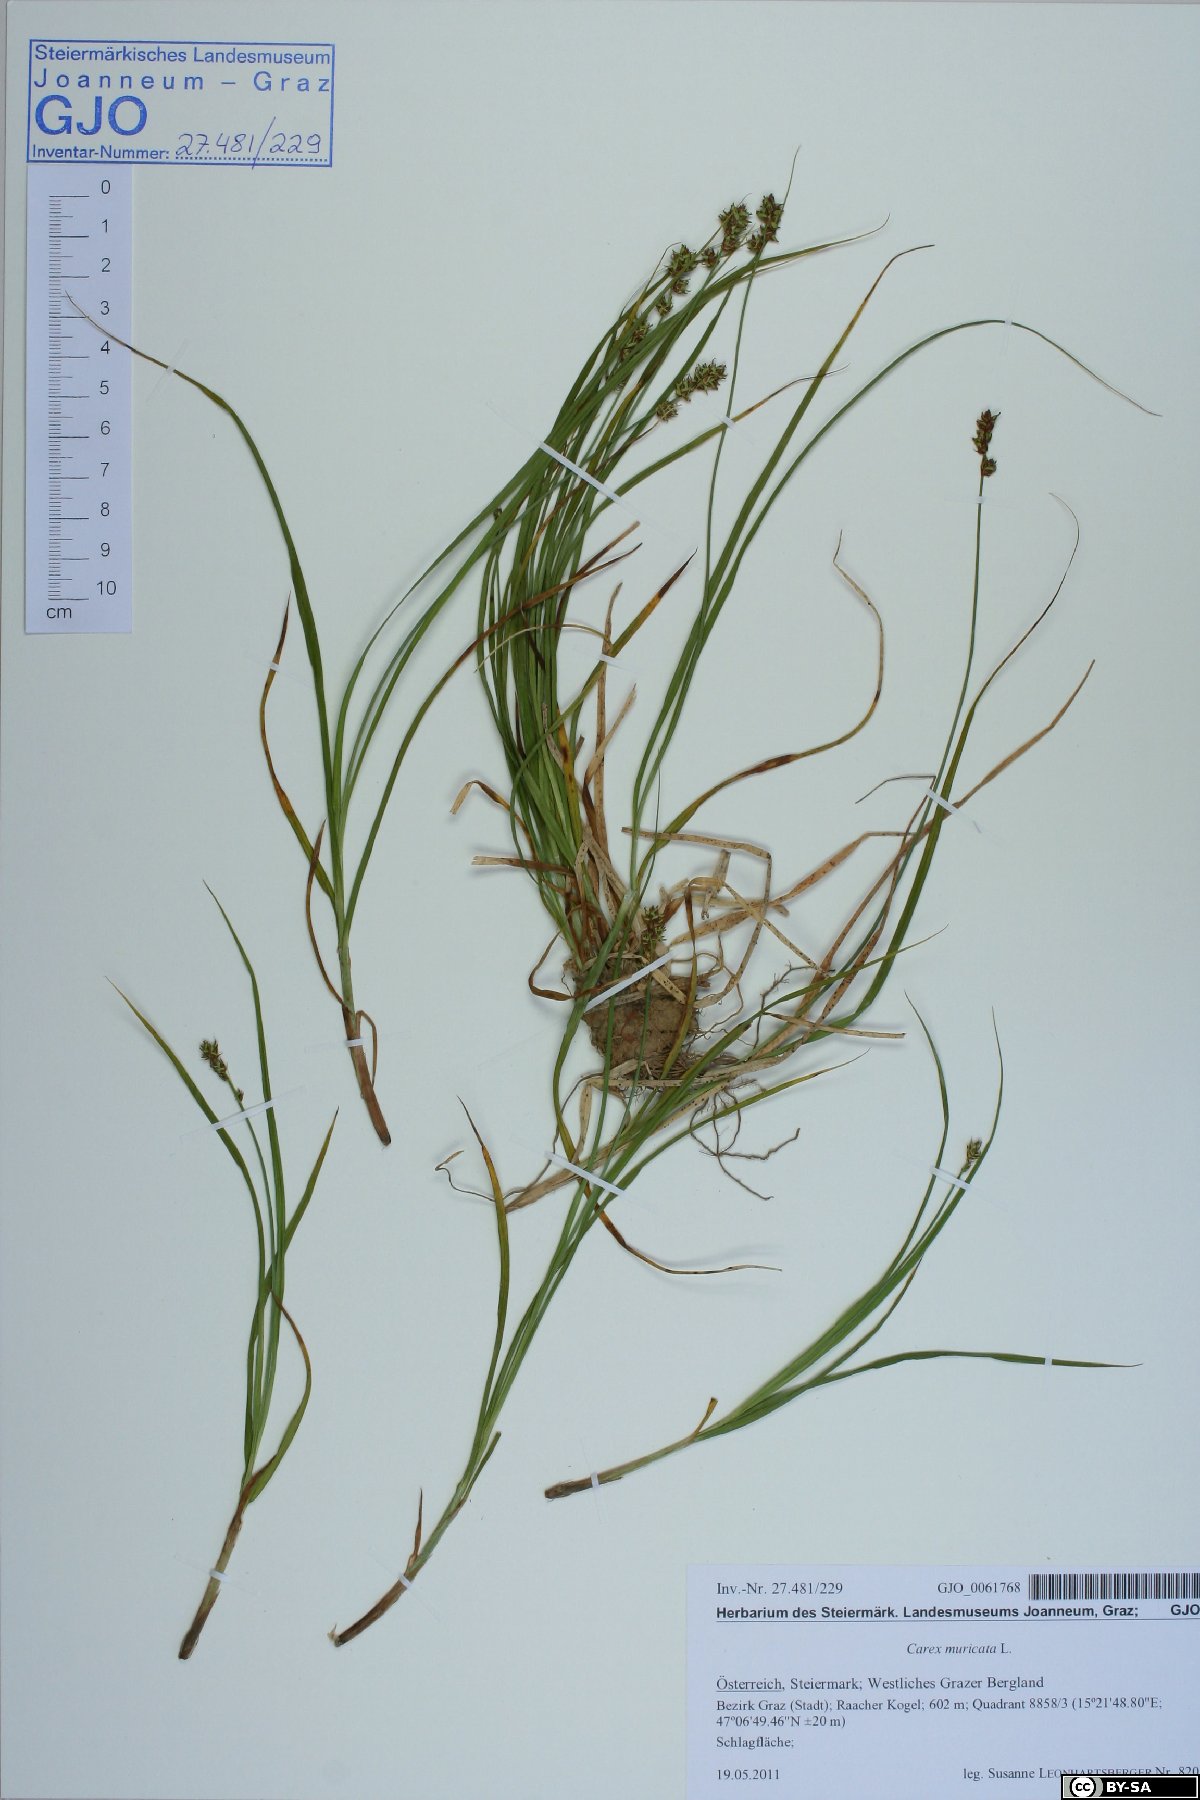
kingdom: Plantae
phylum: Tracheophyta
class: Liliopsida
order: Poales
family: Cyperaceae
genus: Carex
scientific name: Carex muricata
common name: Rough sedge
